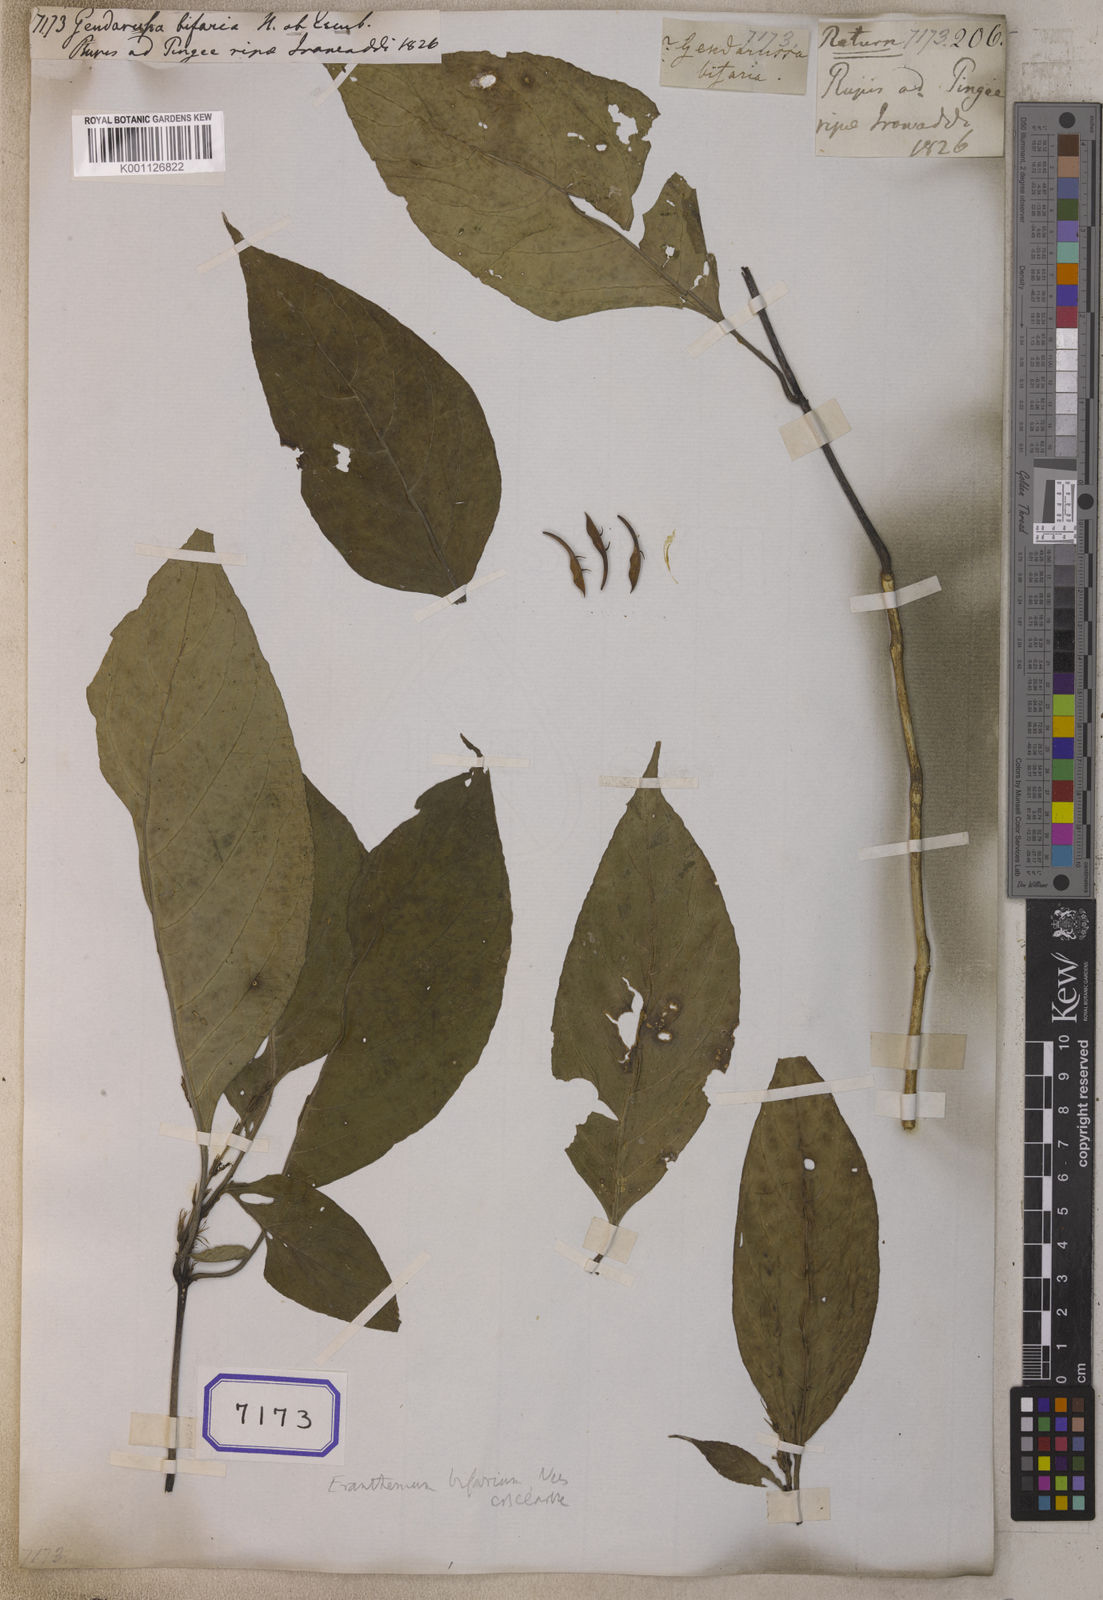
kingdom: Plantae
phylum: Tracheophyta
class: Magnoliopsida
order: Lamiales
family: Acanthaceae
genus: Justicia
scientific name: Justicia Gendarussa bifaria
